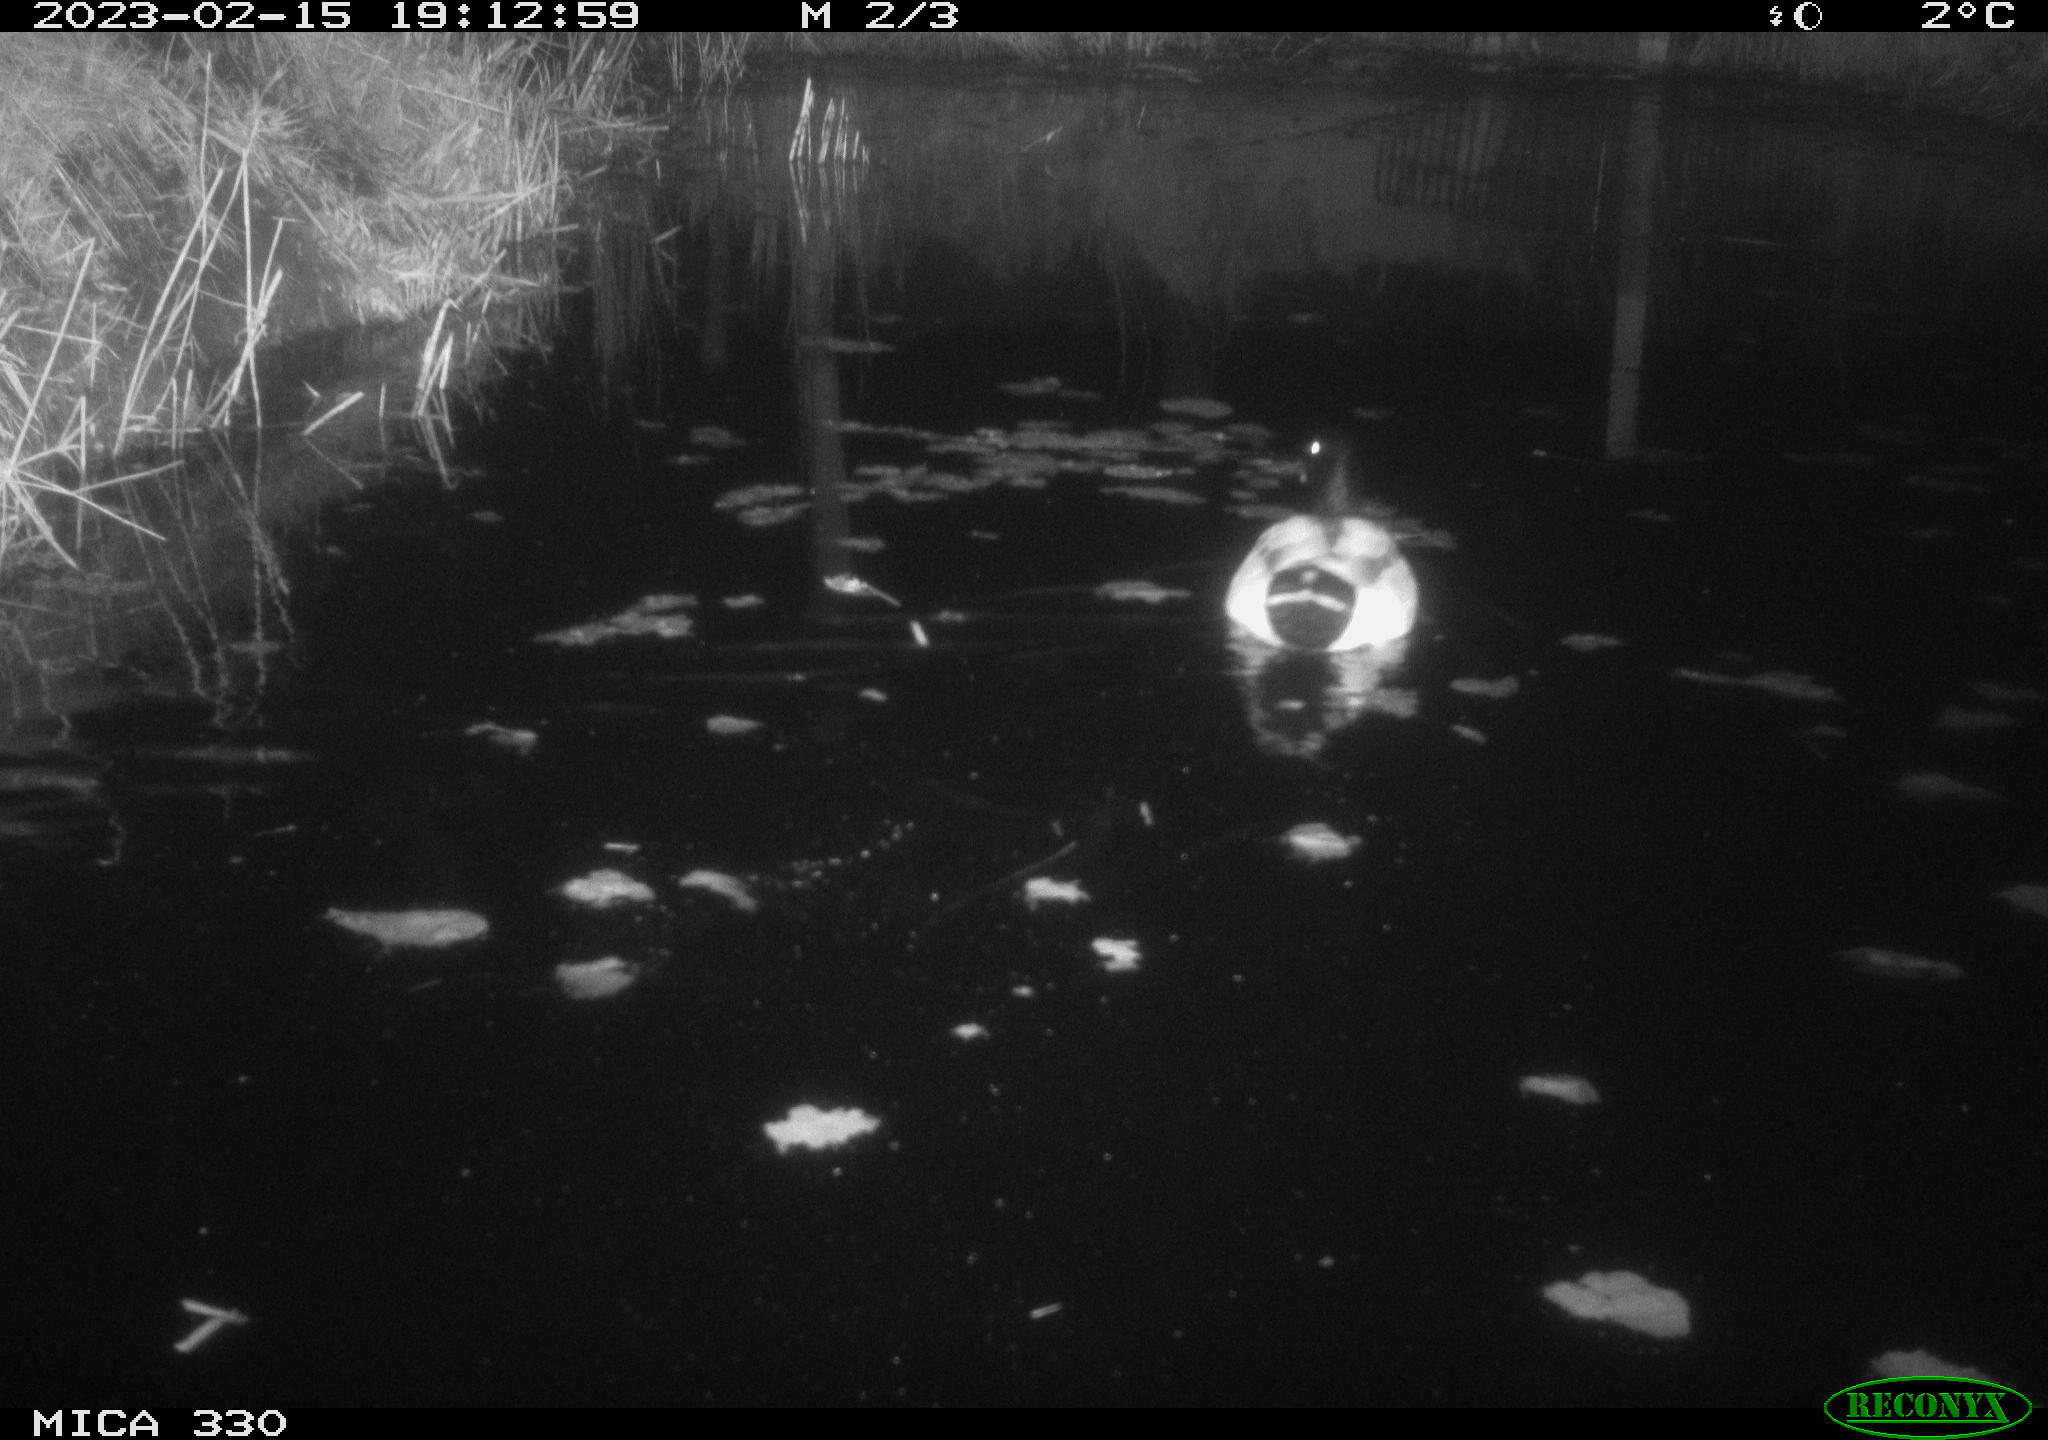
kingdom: Animalia
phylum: Chordata
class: Aves
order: Anseriformes
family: Anatidae
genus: Anas
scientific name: Anas
